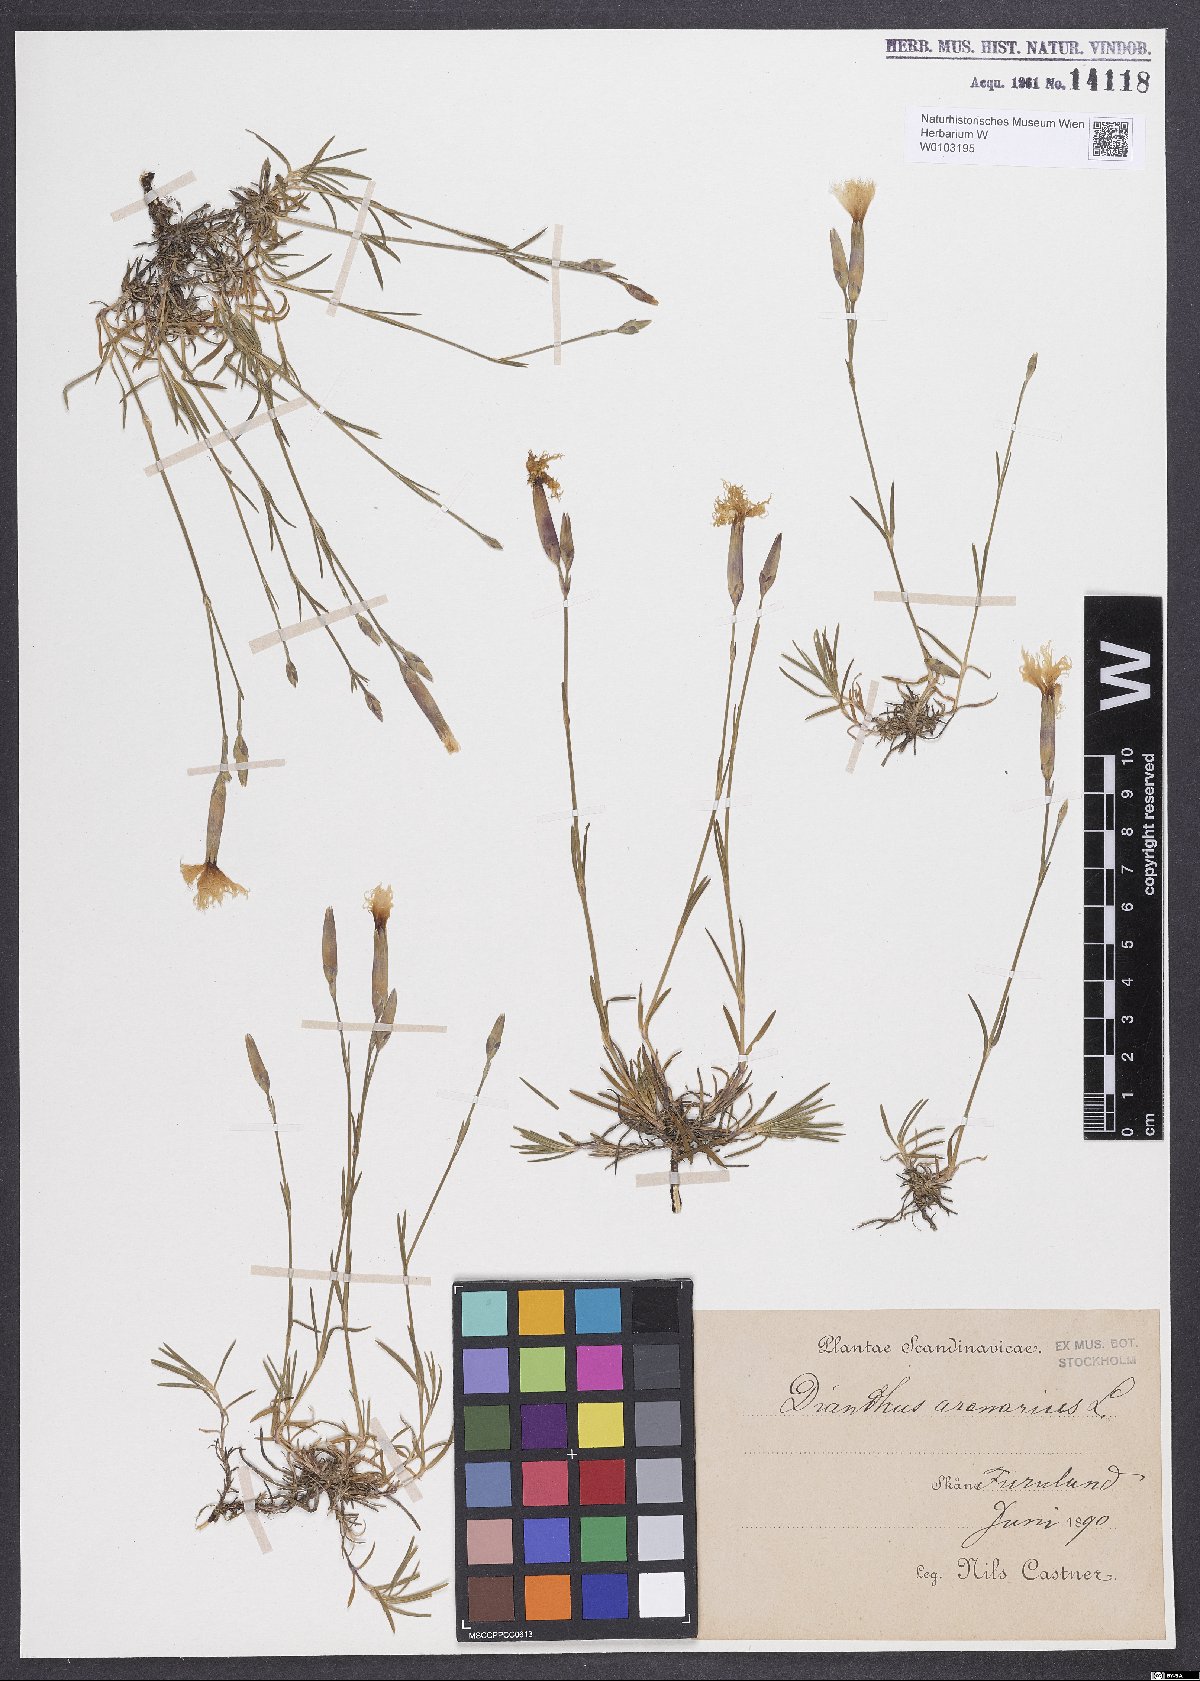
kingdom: Plantae
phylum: Tracheophyta
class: Magnoliopsida
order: Caryophyllales
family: Caryophyllaceae
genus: Dianthus
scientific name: Dianthus arenarius
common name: Stone pink
